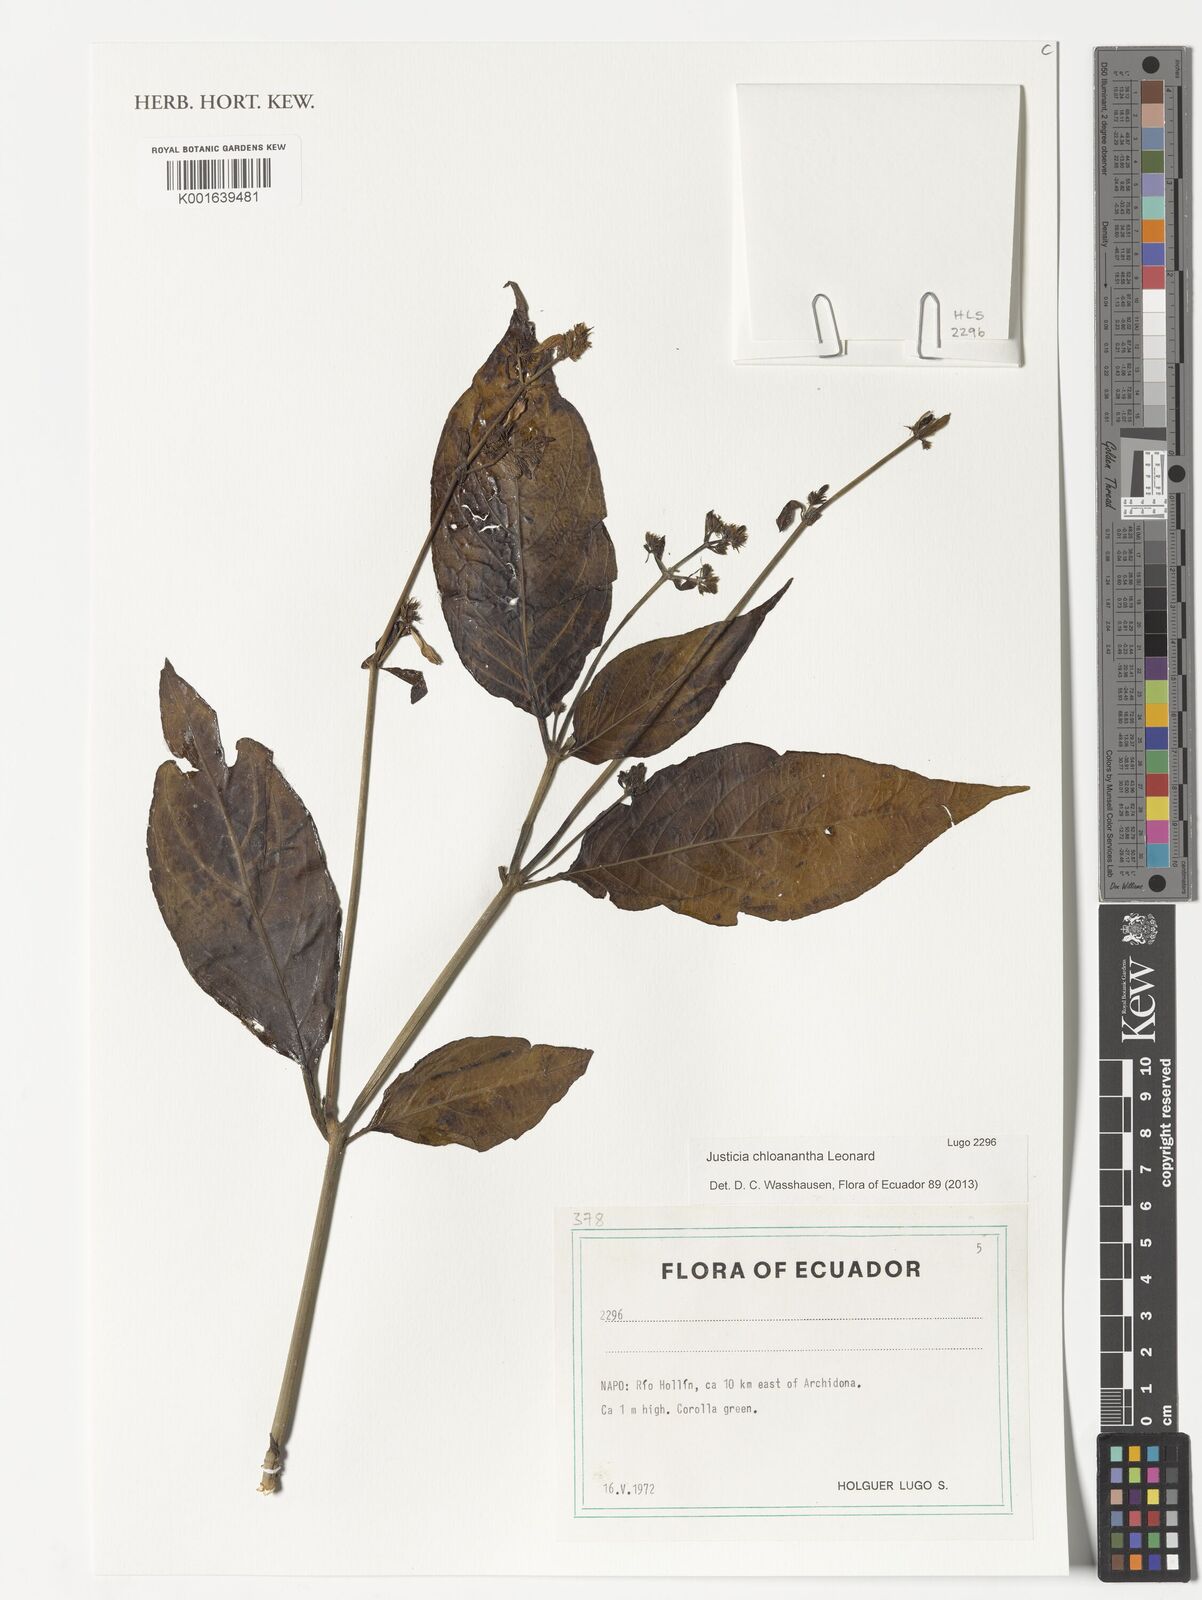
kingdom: Plantae
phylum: Tracheophyta
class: Magnoliopsida
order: Lamiales
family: Acanthaceae
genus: Justicia
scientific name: Justicia chloanantha
